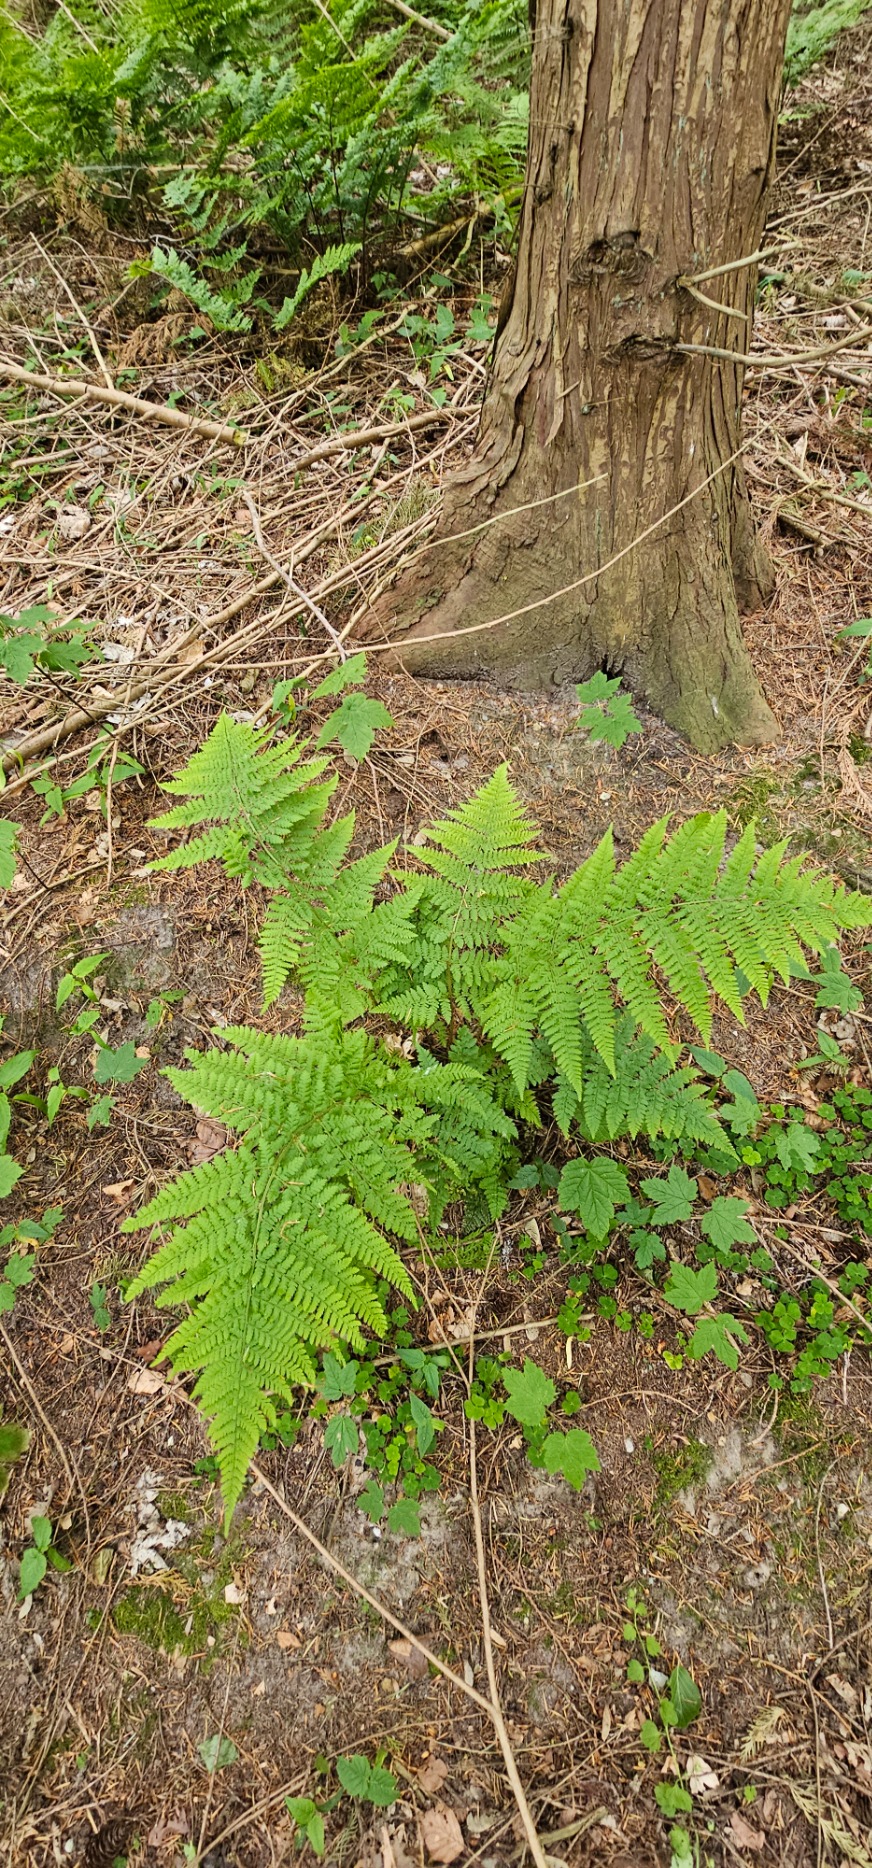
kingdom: Plantae
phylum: Tracheophyta
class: Polypodiopsida
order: Polypodiales
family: Dryopteridaceae
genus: Dryopteris
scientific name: Dryopteris dilatata
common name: Bredbladet mangeløv
